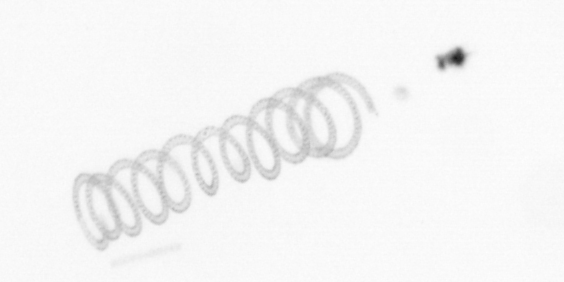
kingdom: Chromista
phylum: Ochrophyta
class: Bacillariophyceae
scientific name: Bacillariophyceae
